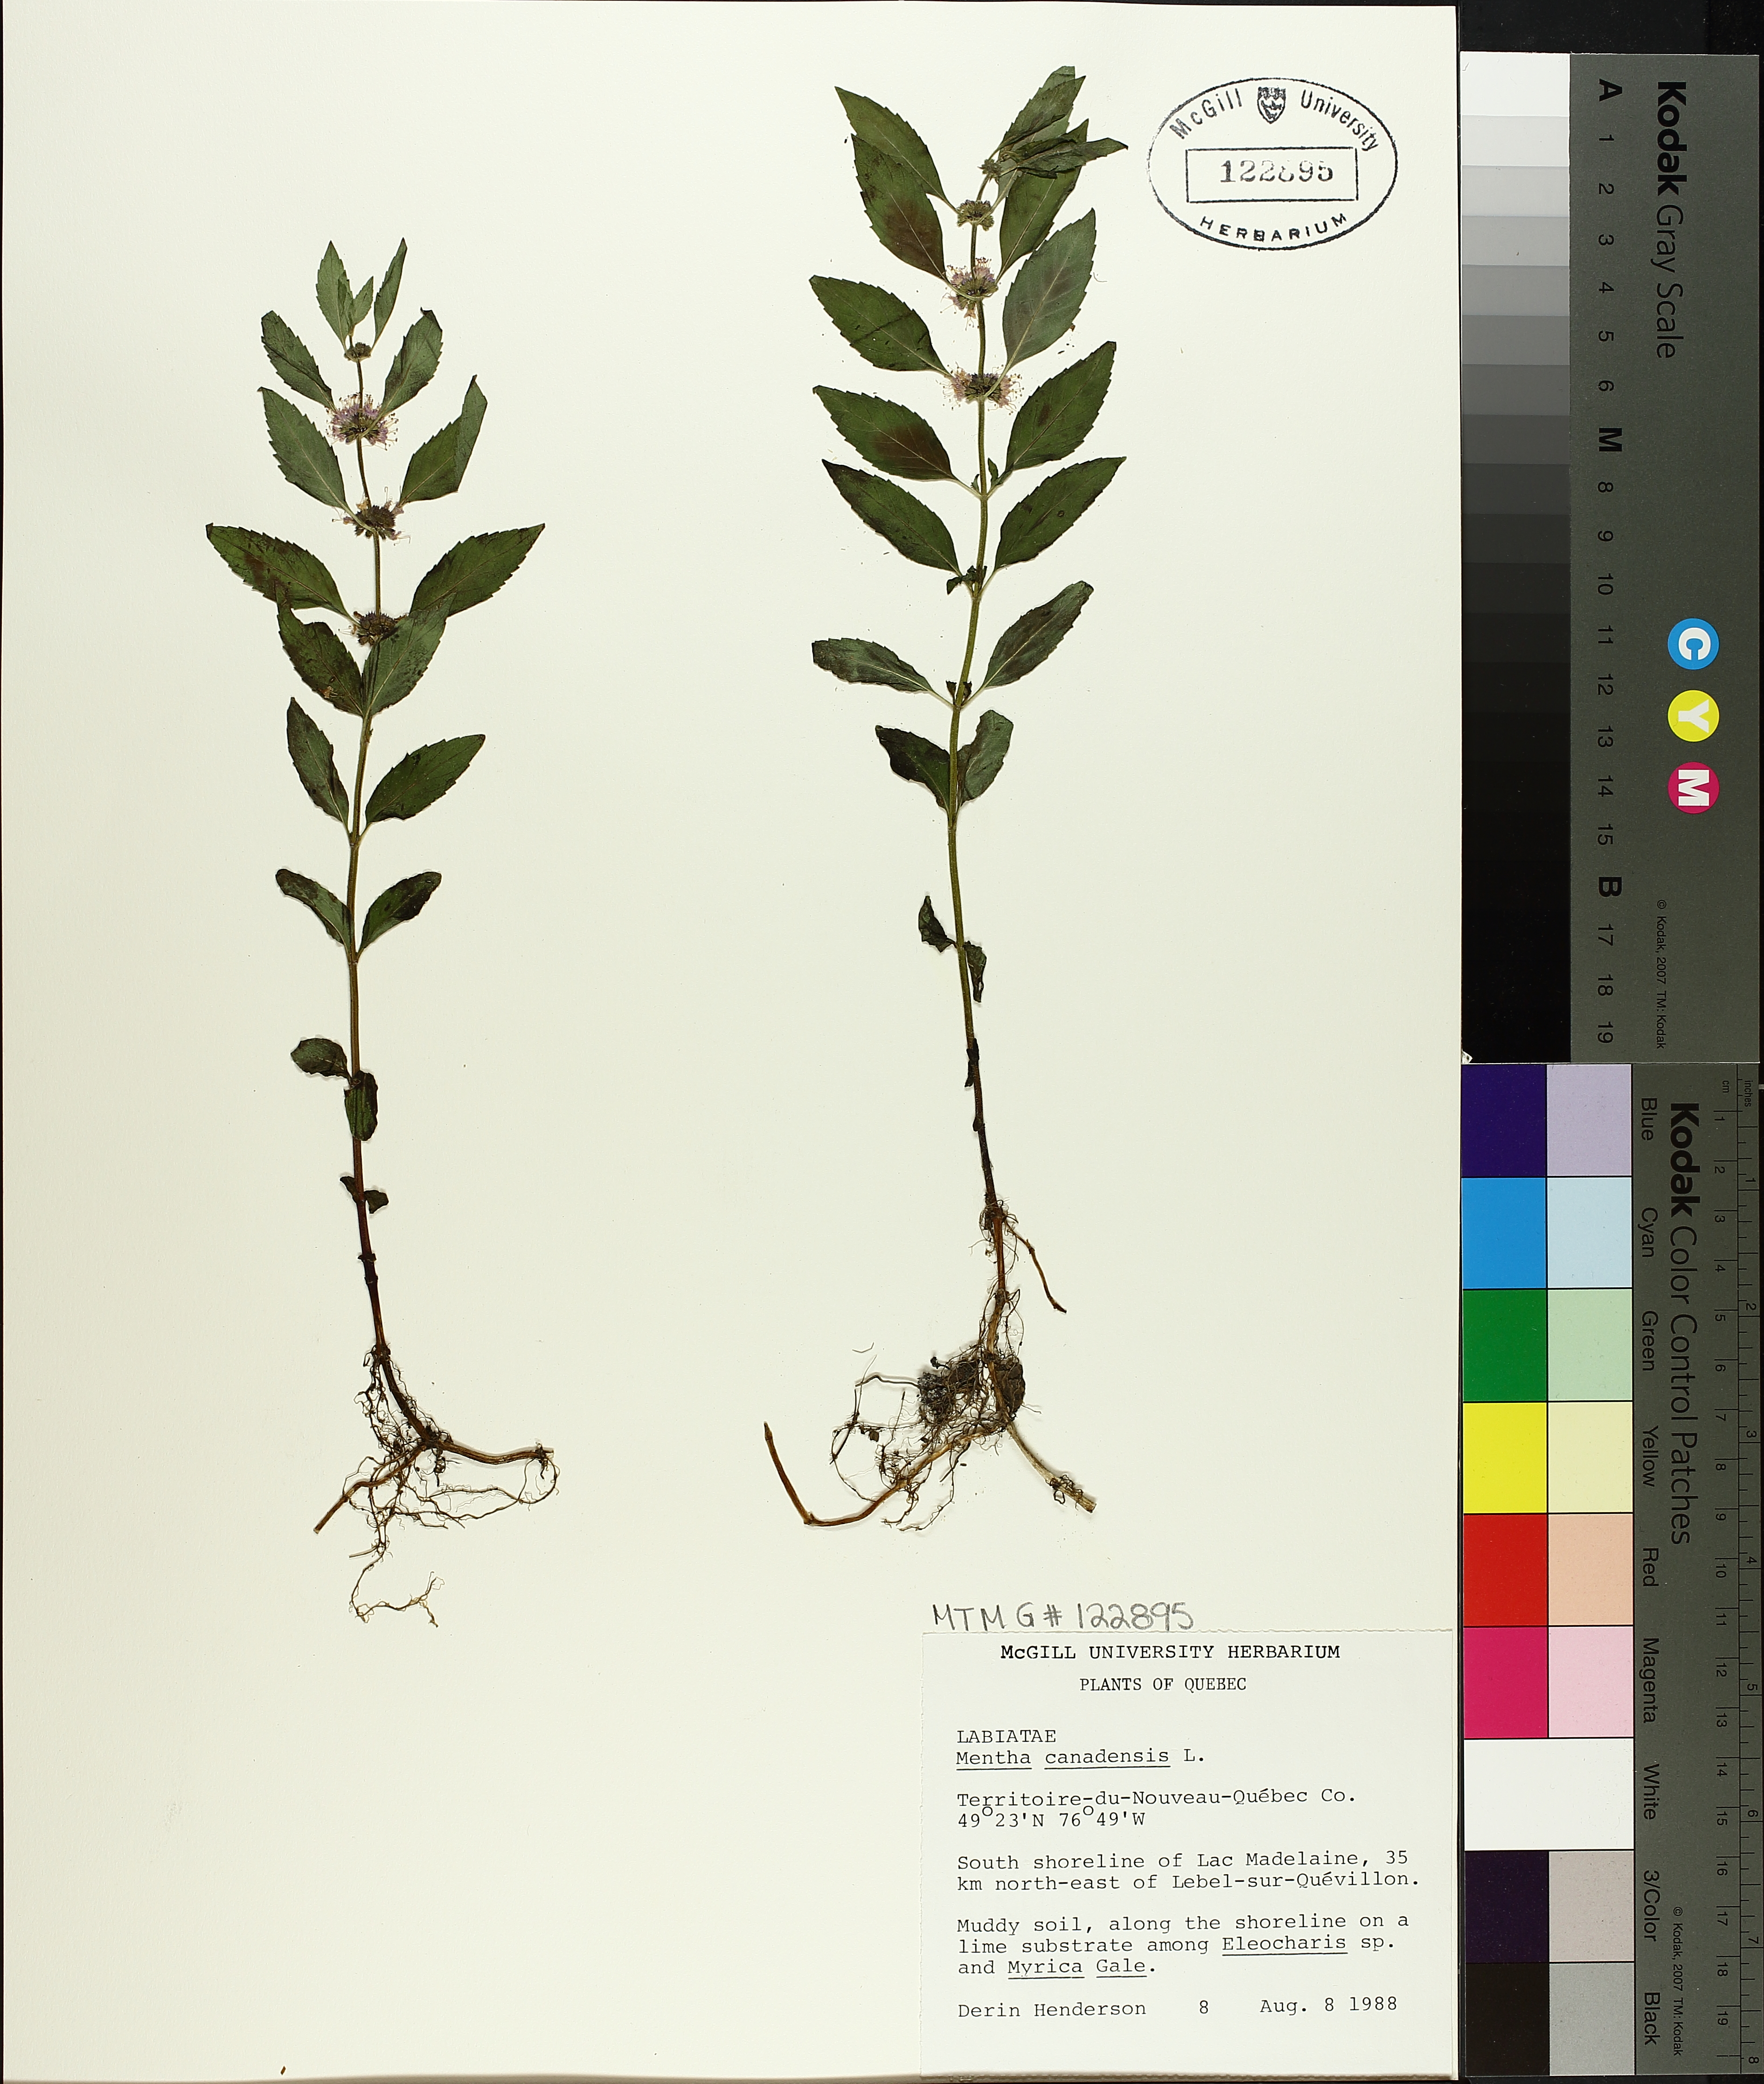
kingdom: Plantae
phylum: Tracheophyta
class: Magnoliopsida
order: Lamiales
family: Lamiaceae
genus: Mentha
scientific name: Mentha canadensis
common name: American corn mint
